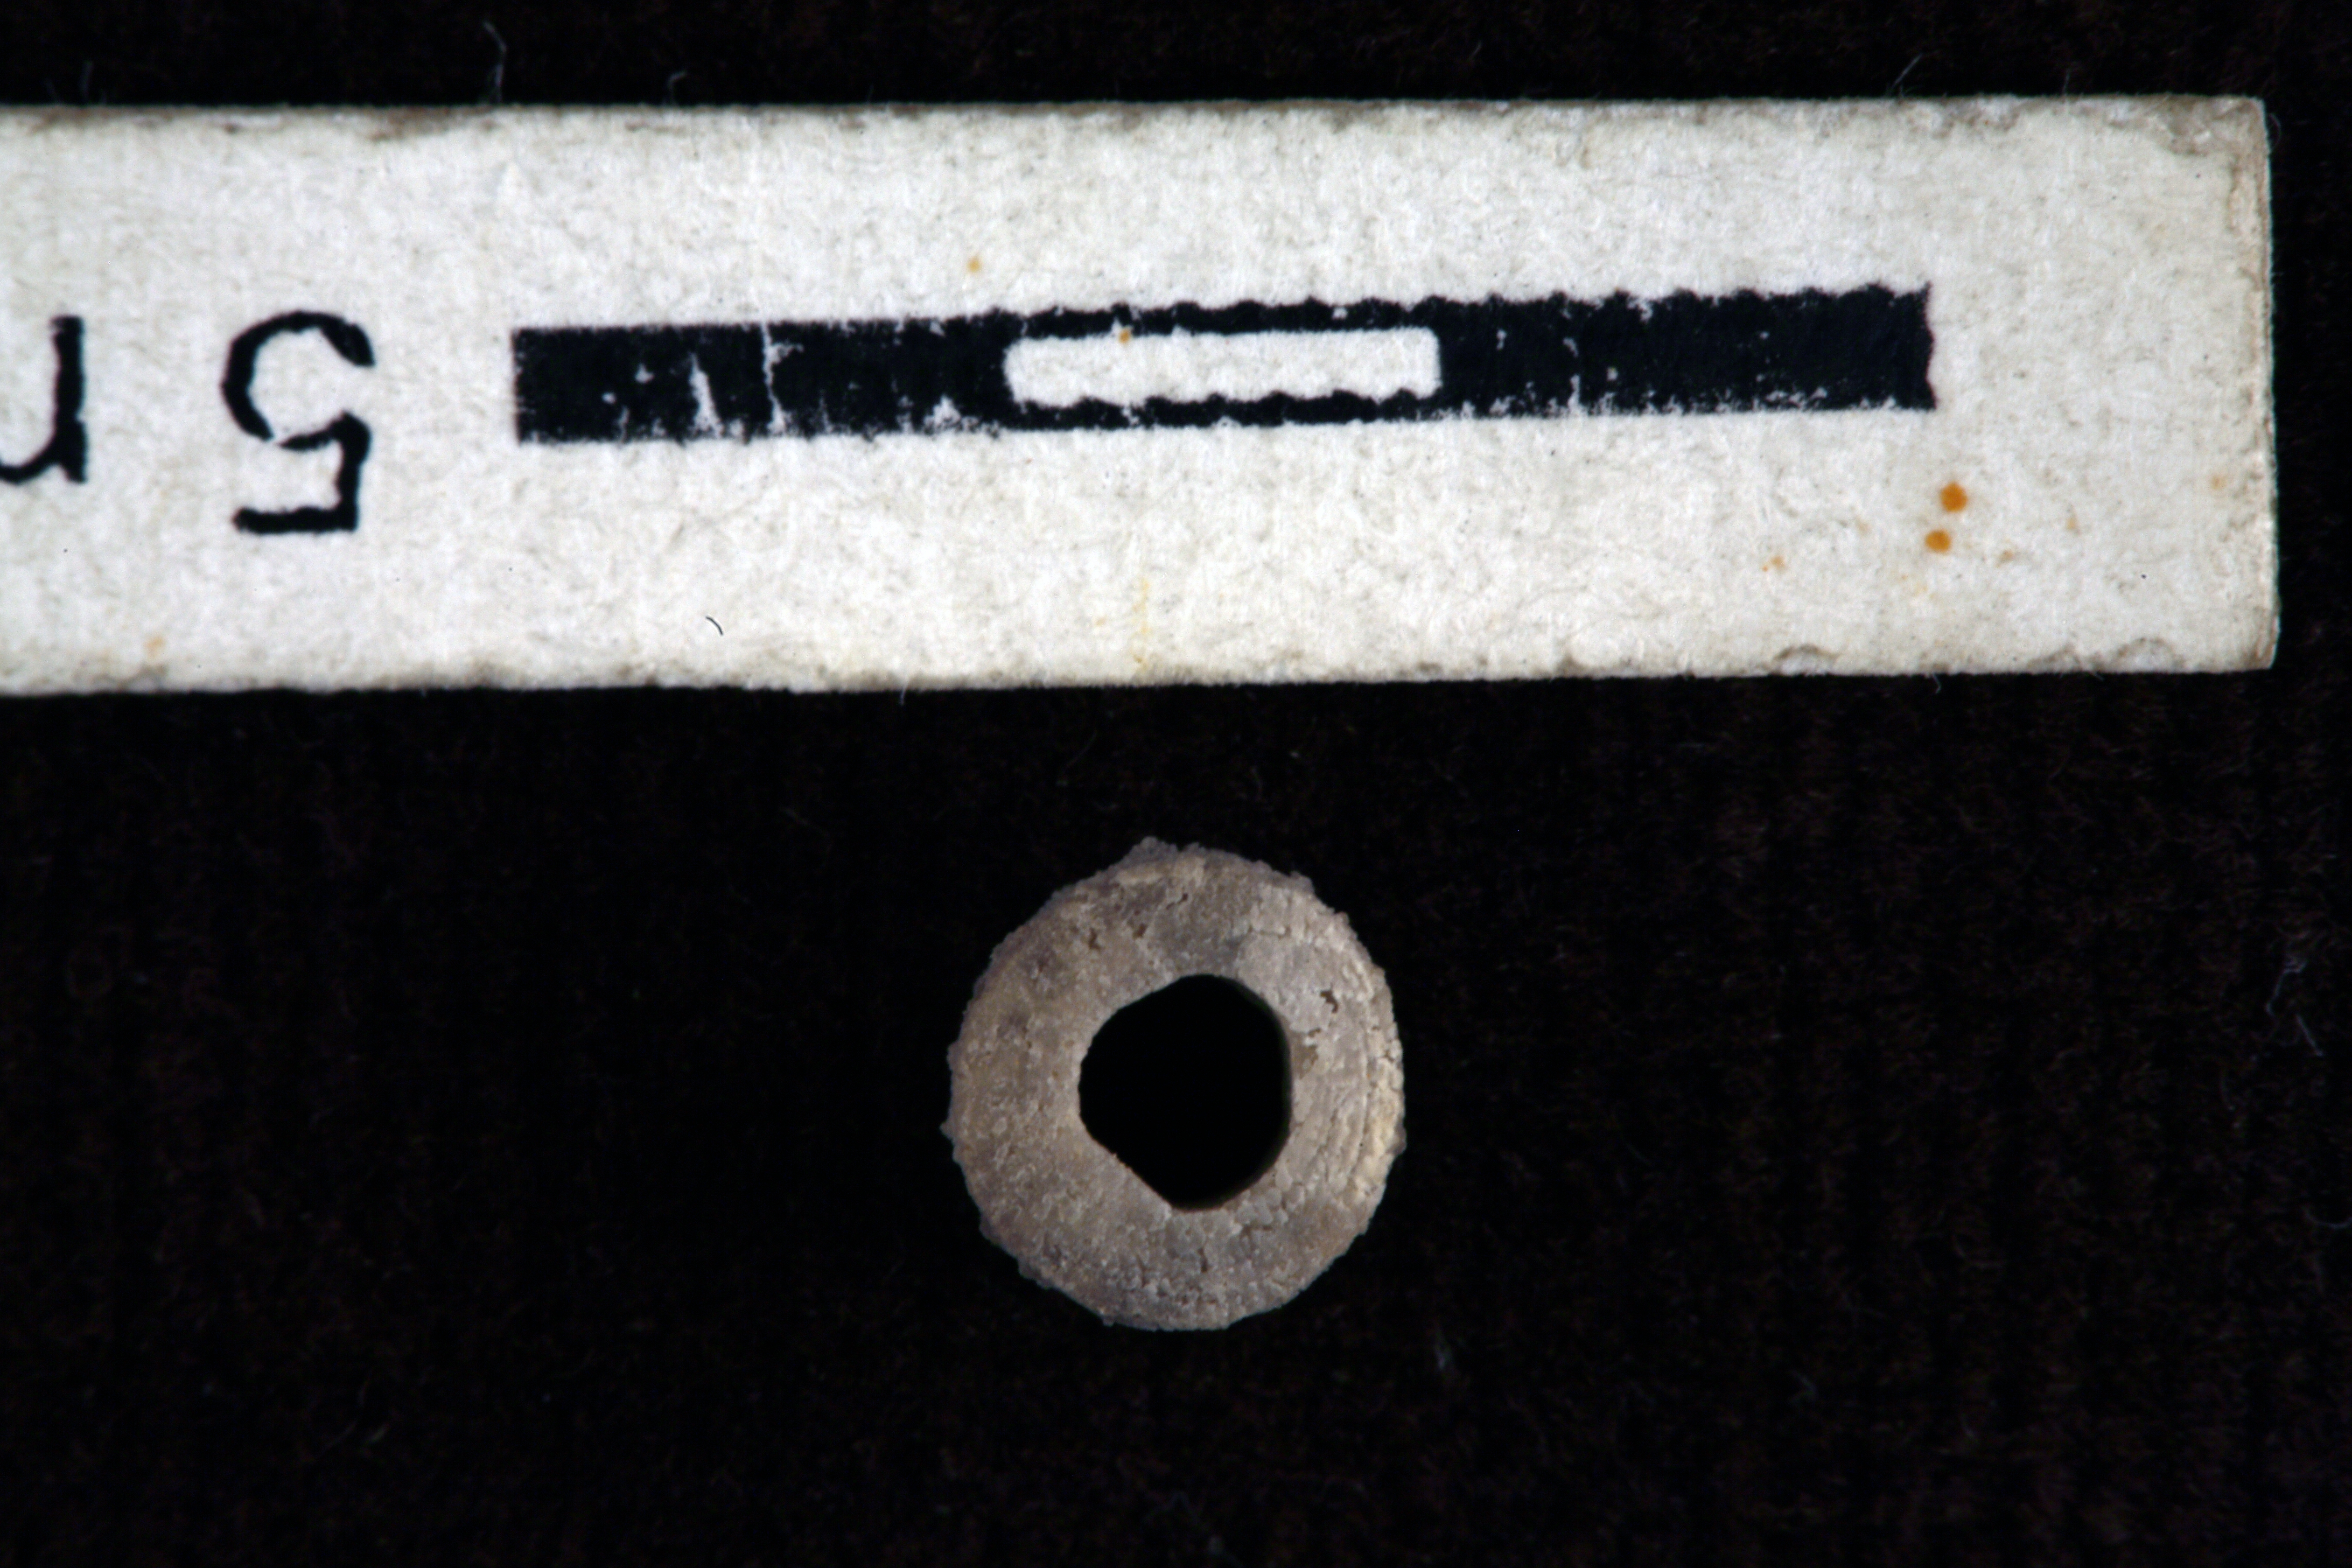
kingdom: Animalia
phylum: Echinodermata
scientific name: Echinodermata
